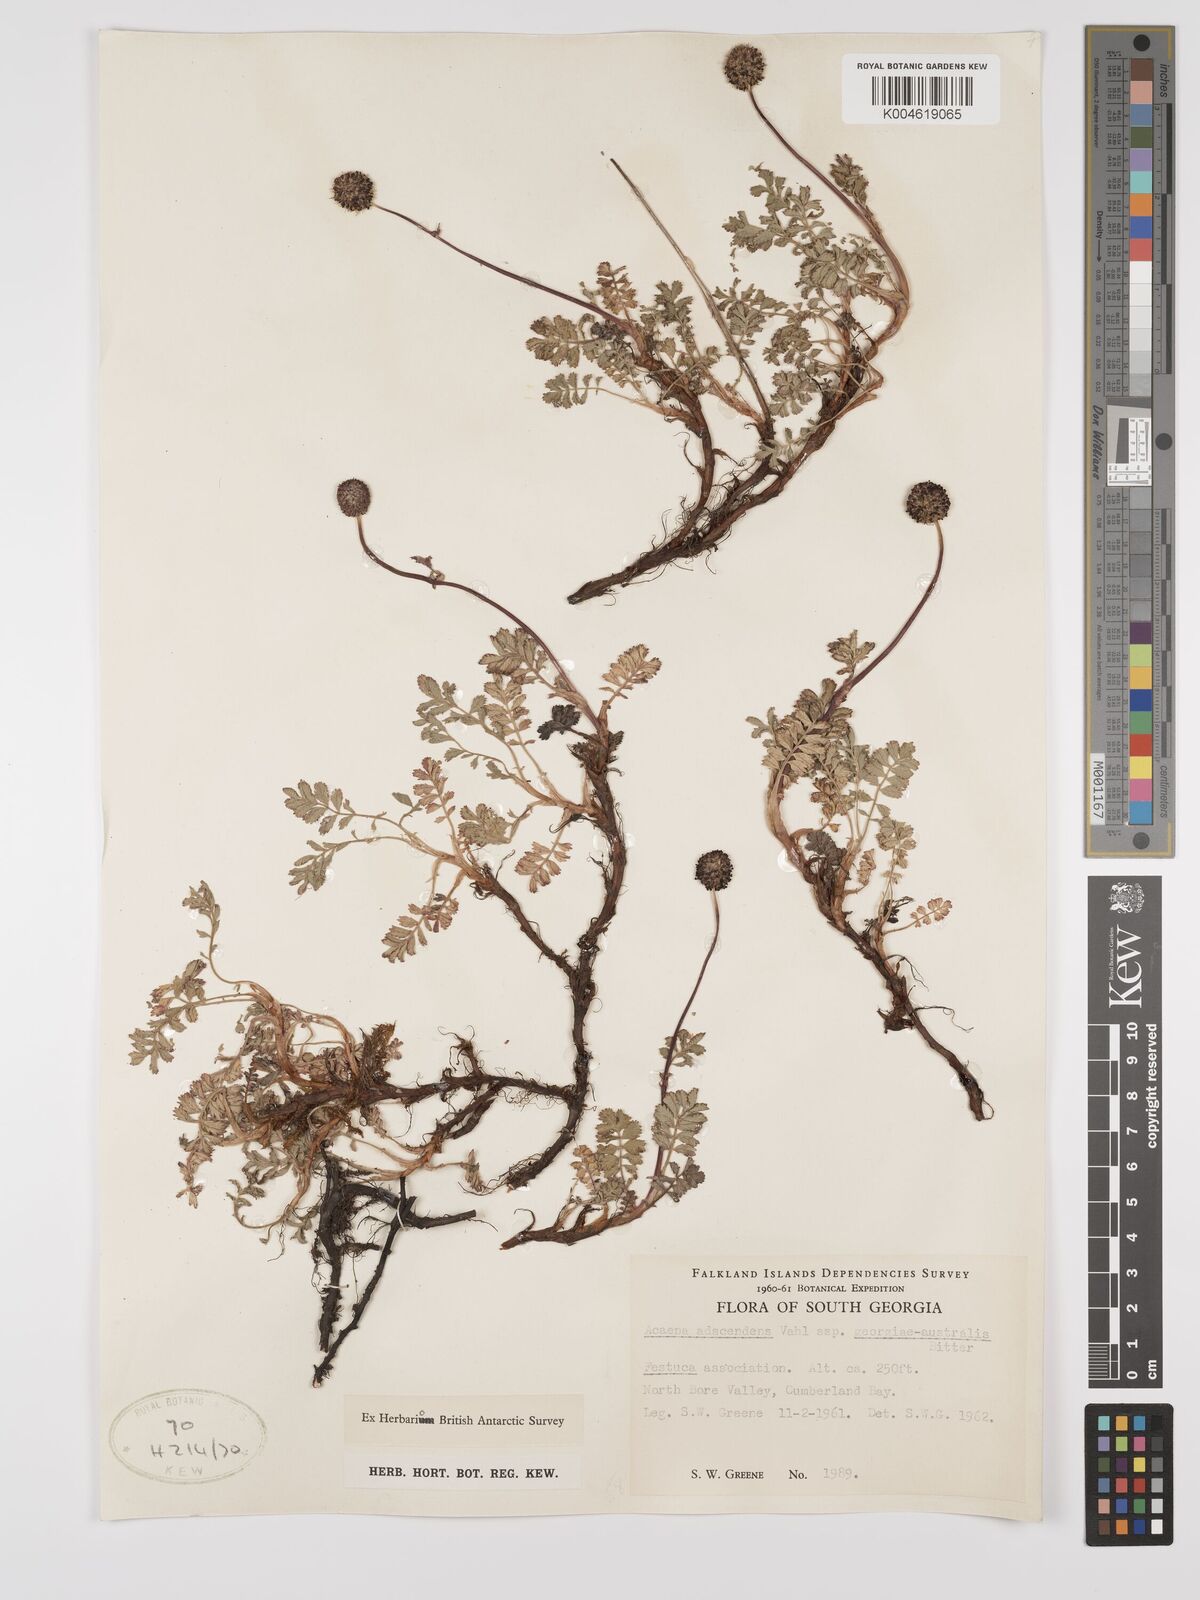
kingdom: Plantae
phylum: Tracheophyta
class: Magnoliopsida
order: Rosales
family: Rosaceae
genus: Acaena
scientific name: Acaena magellanica
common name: New zealand burr
